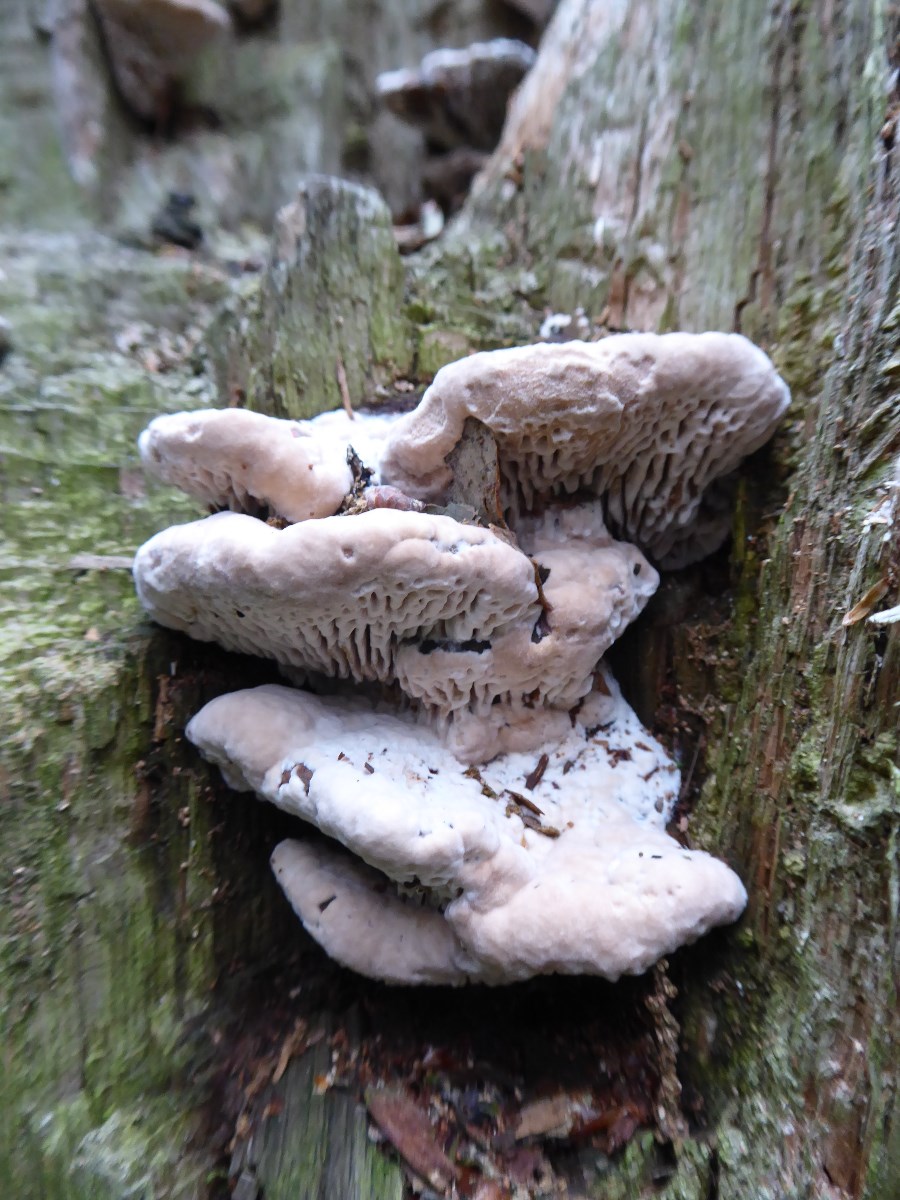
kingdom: Fungi
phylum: Basidiomycota
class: Agaricomycetes
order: Polyporales
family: Fomitopsidaceae
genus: Daedalea
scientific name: Daedalea quercina
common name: ege-labyrintsvamp
